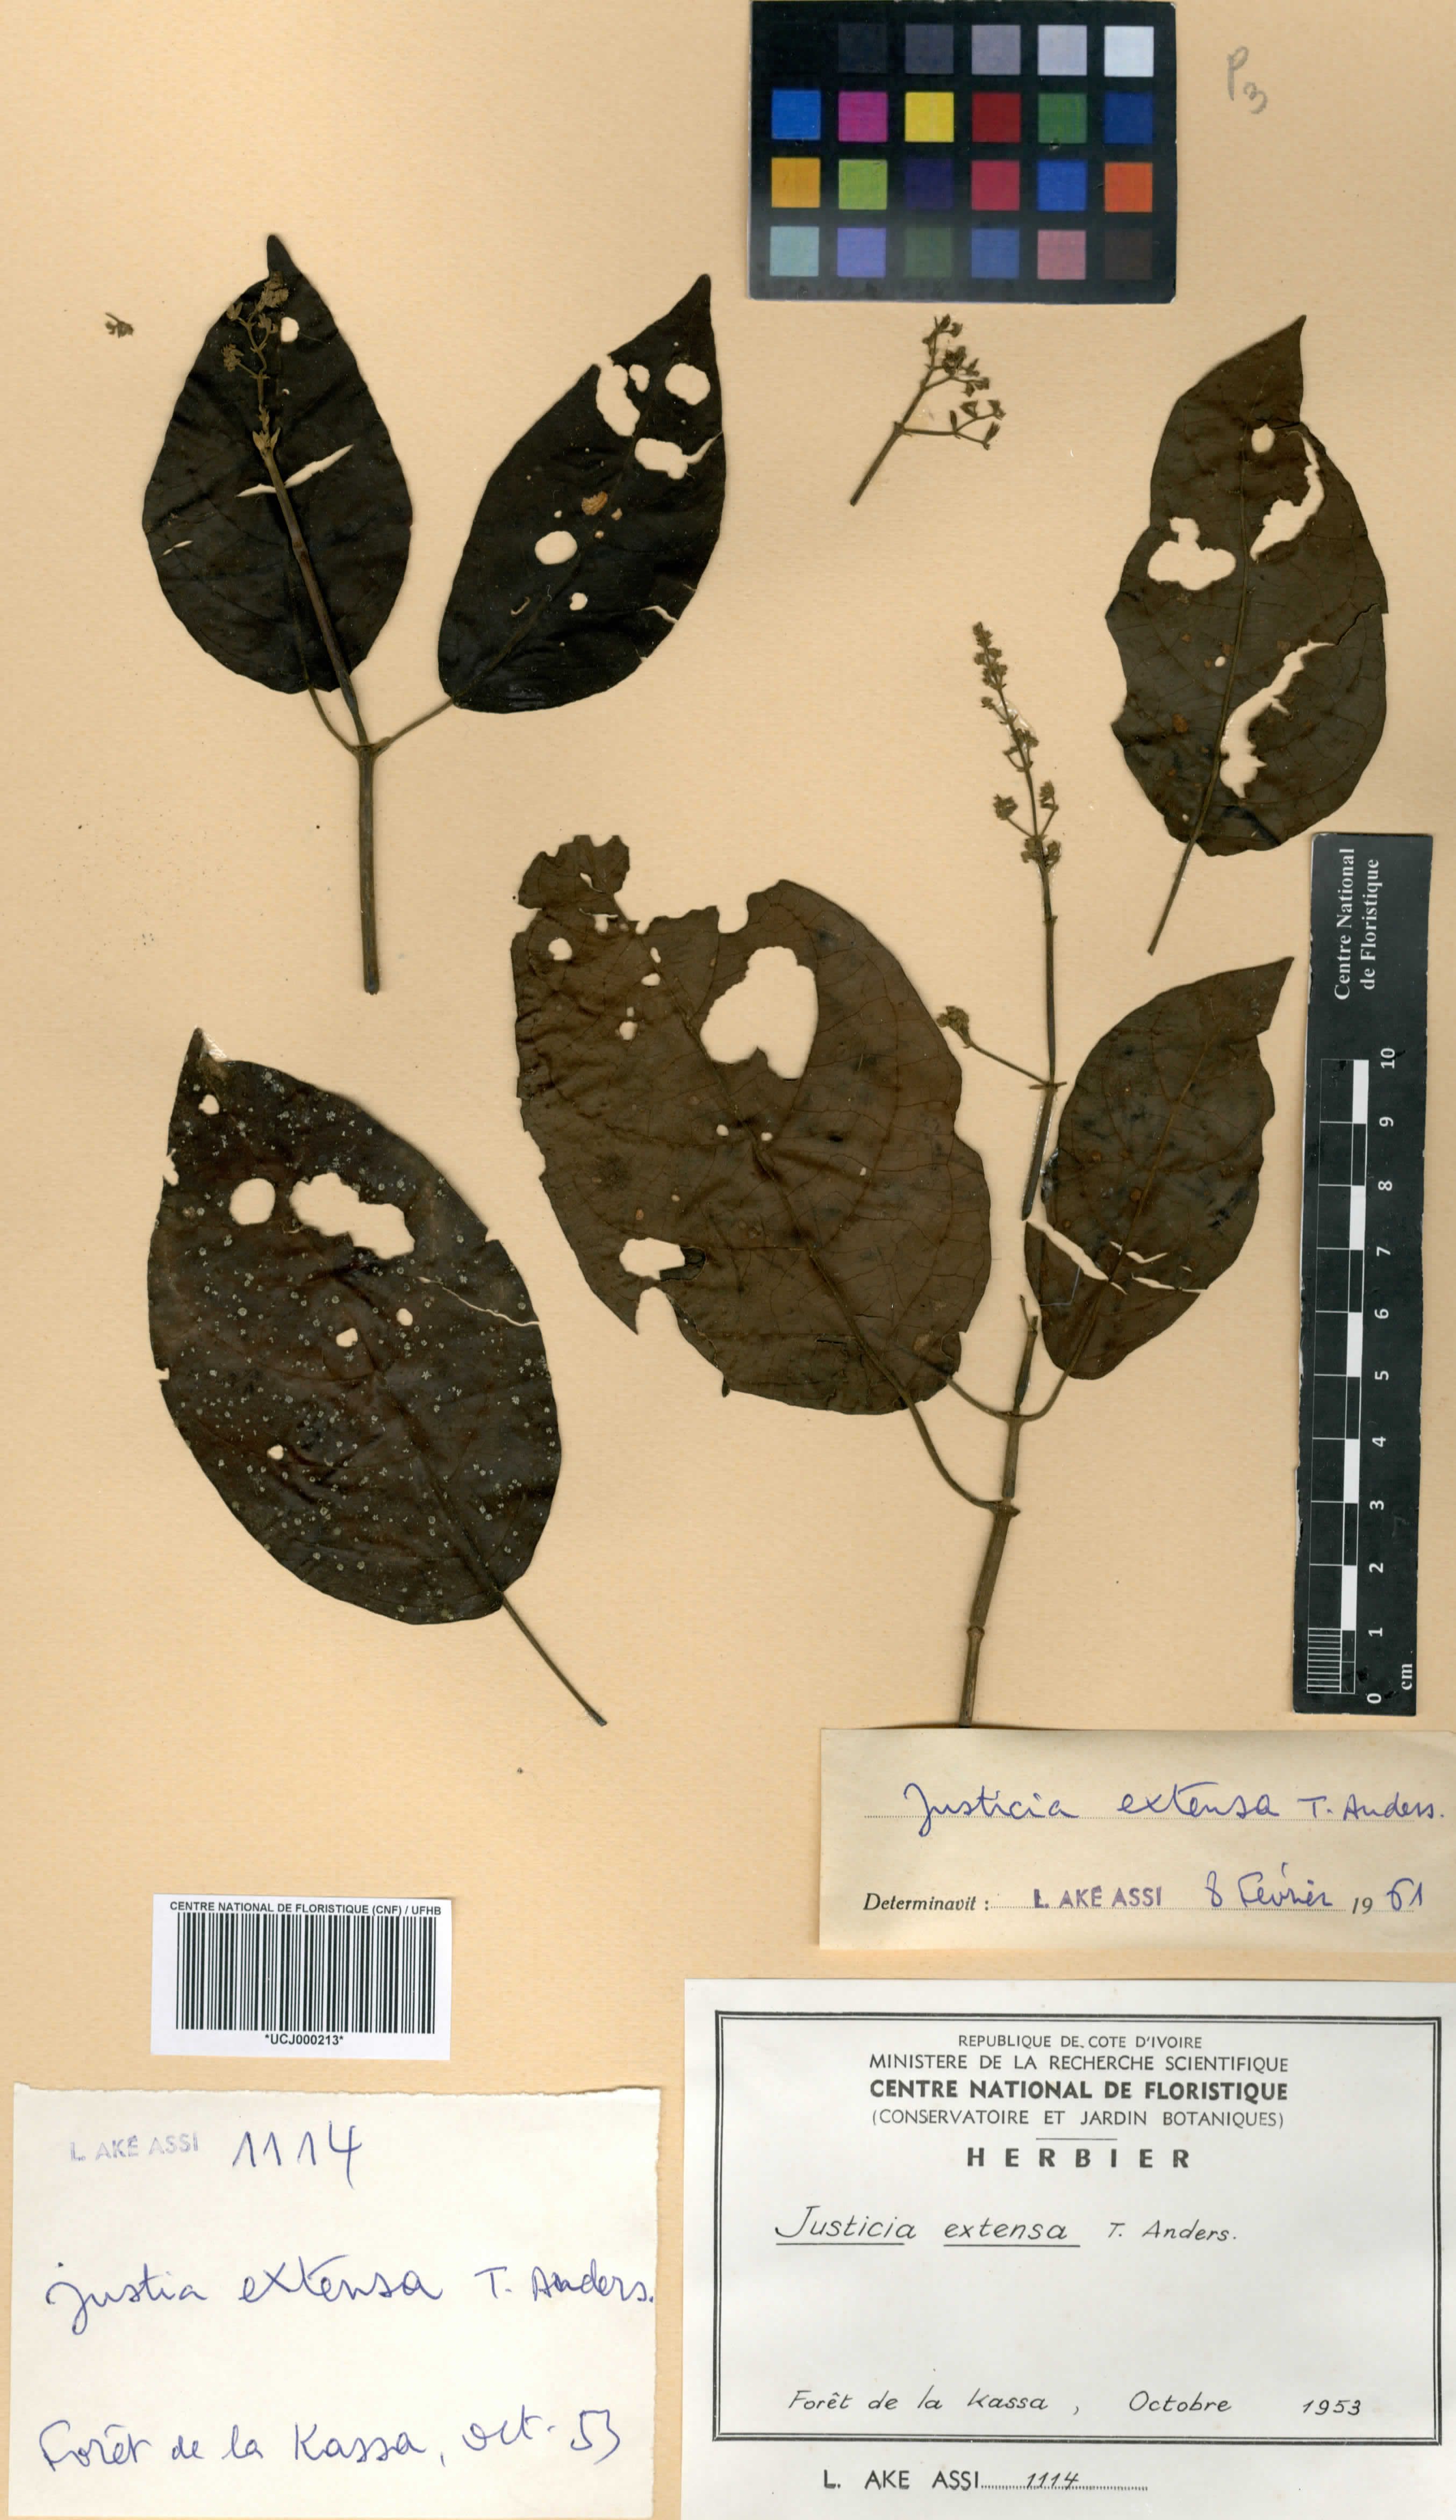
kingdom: Plantae
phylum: Tracheophyta
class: Magnoliopsida
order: Lamiales
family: Acanthaceae
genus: Justicia
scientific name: Justicia extensa
